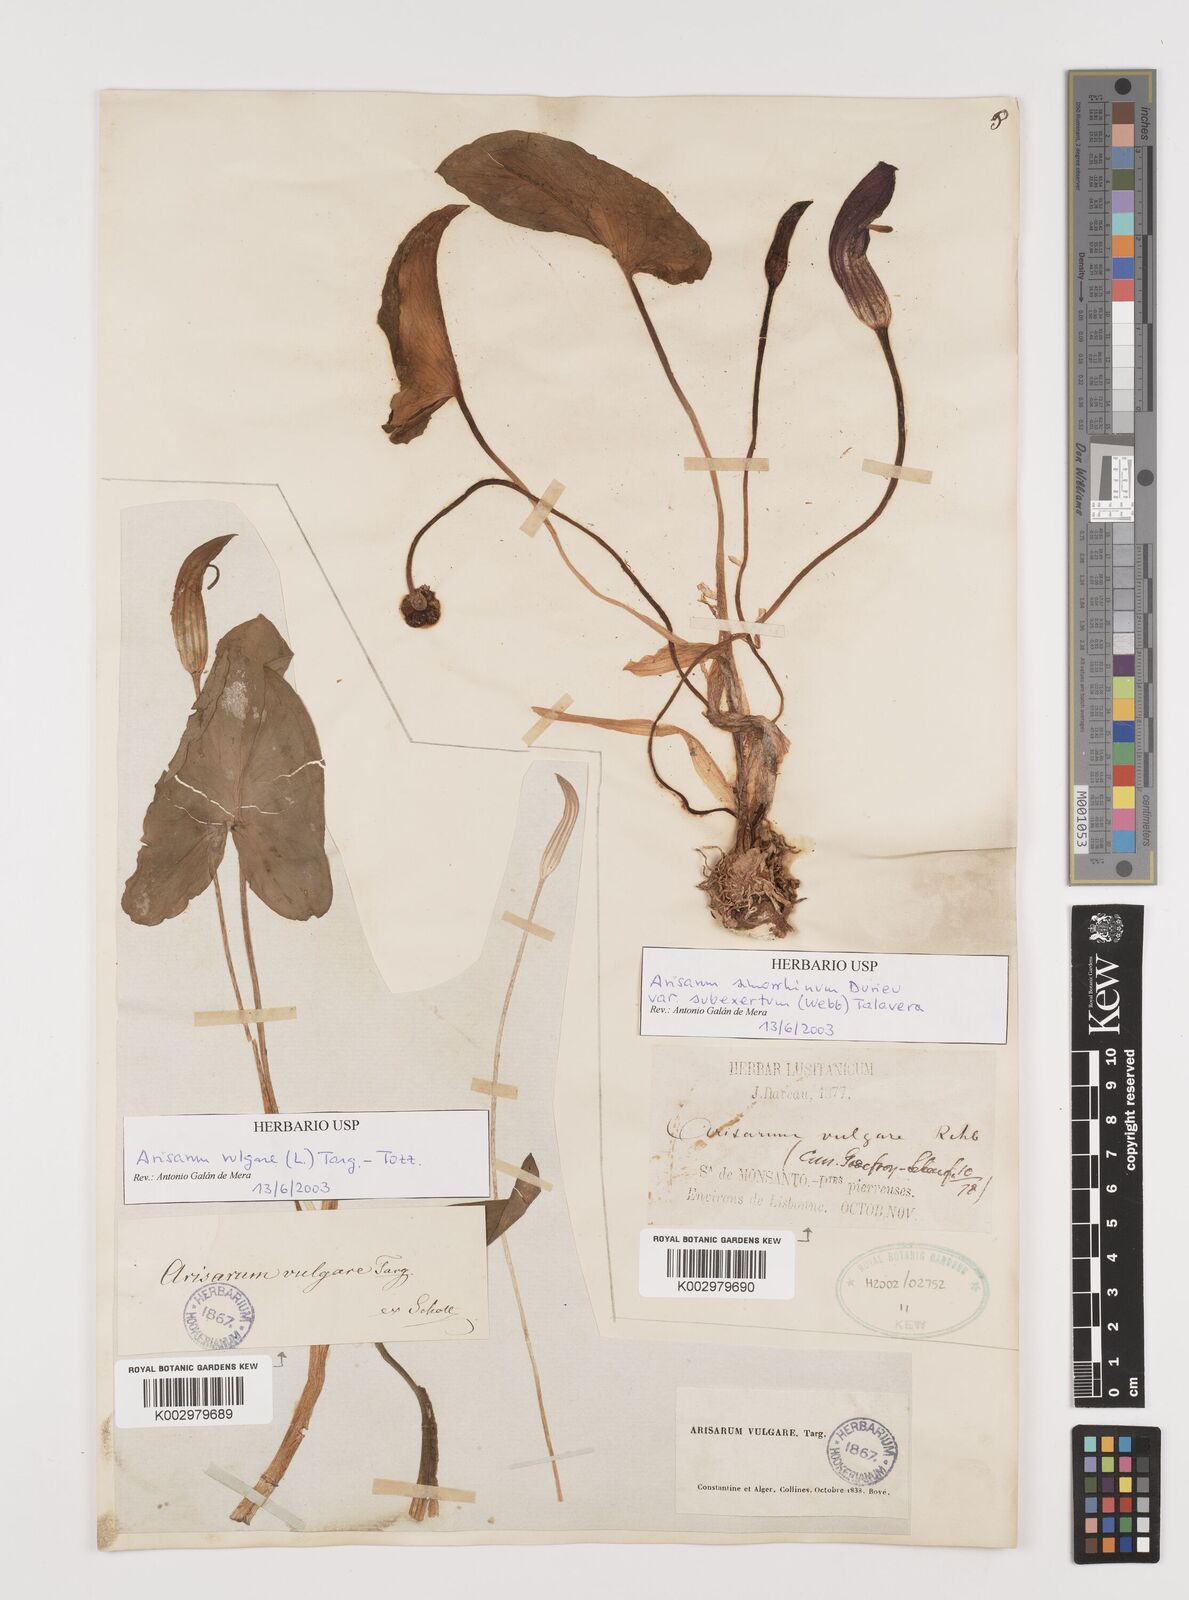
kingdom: Plantae
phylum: Tracheophyta
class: Liliopsida
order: Alismatales
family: Araceae
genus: Arisarum
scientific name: Arisarum simorrhinum
